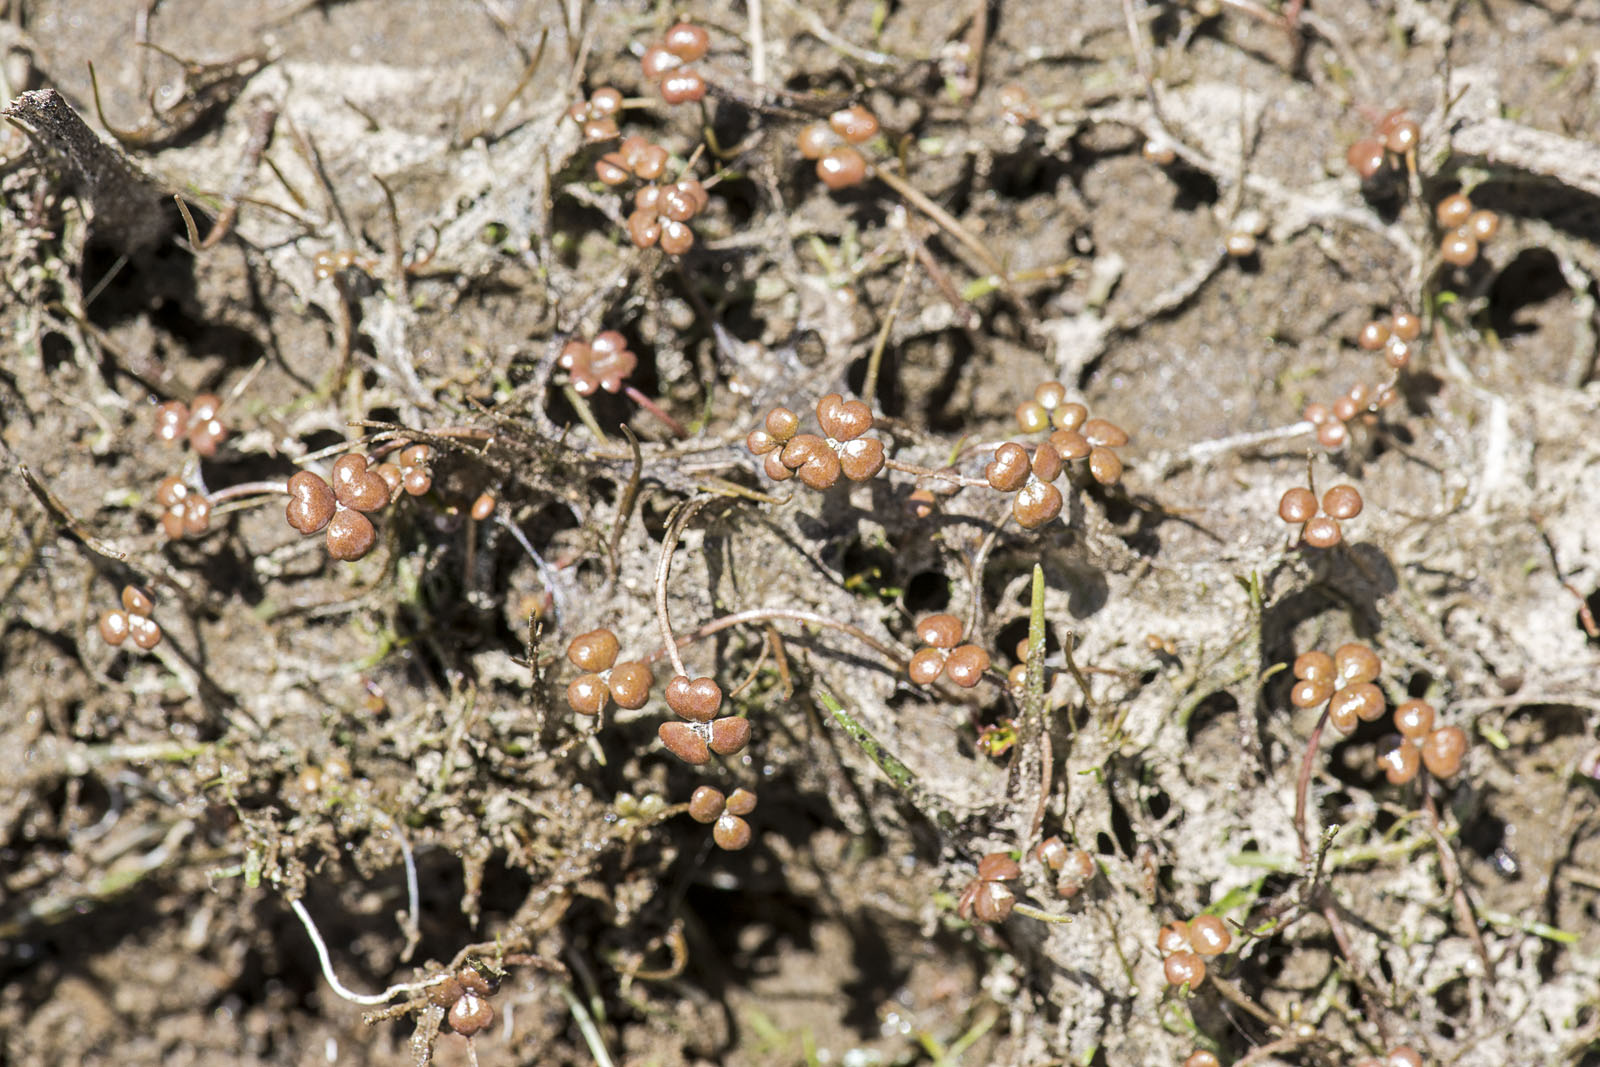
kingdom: Plantae
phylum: Tracheophyta
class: Magnoliopsida
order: Apiales
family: Araliaceae
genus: Hydrocotyle
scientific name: Hydrocotyle sulcata
